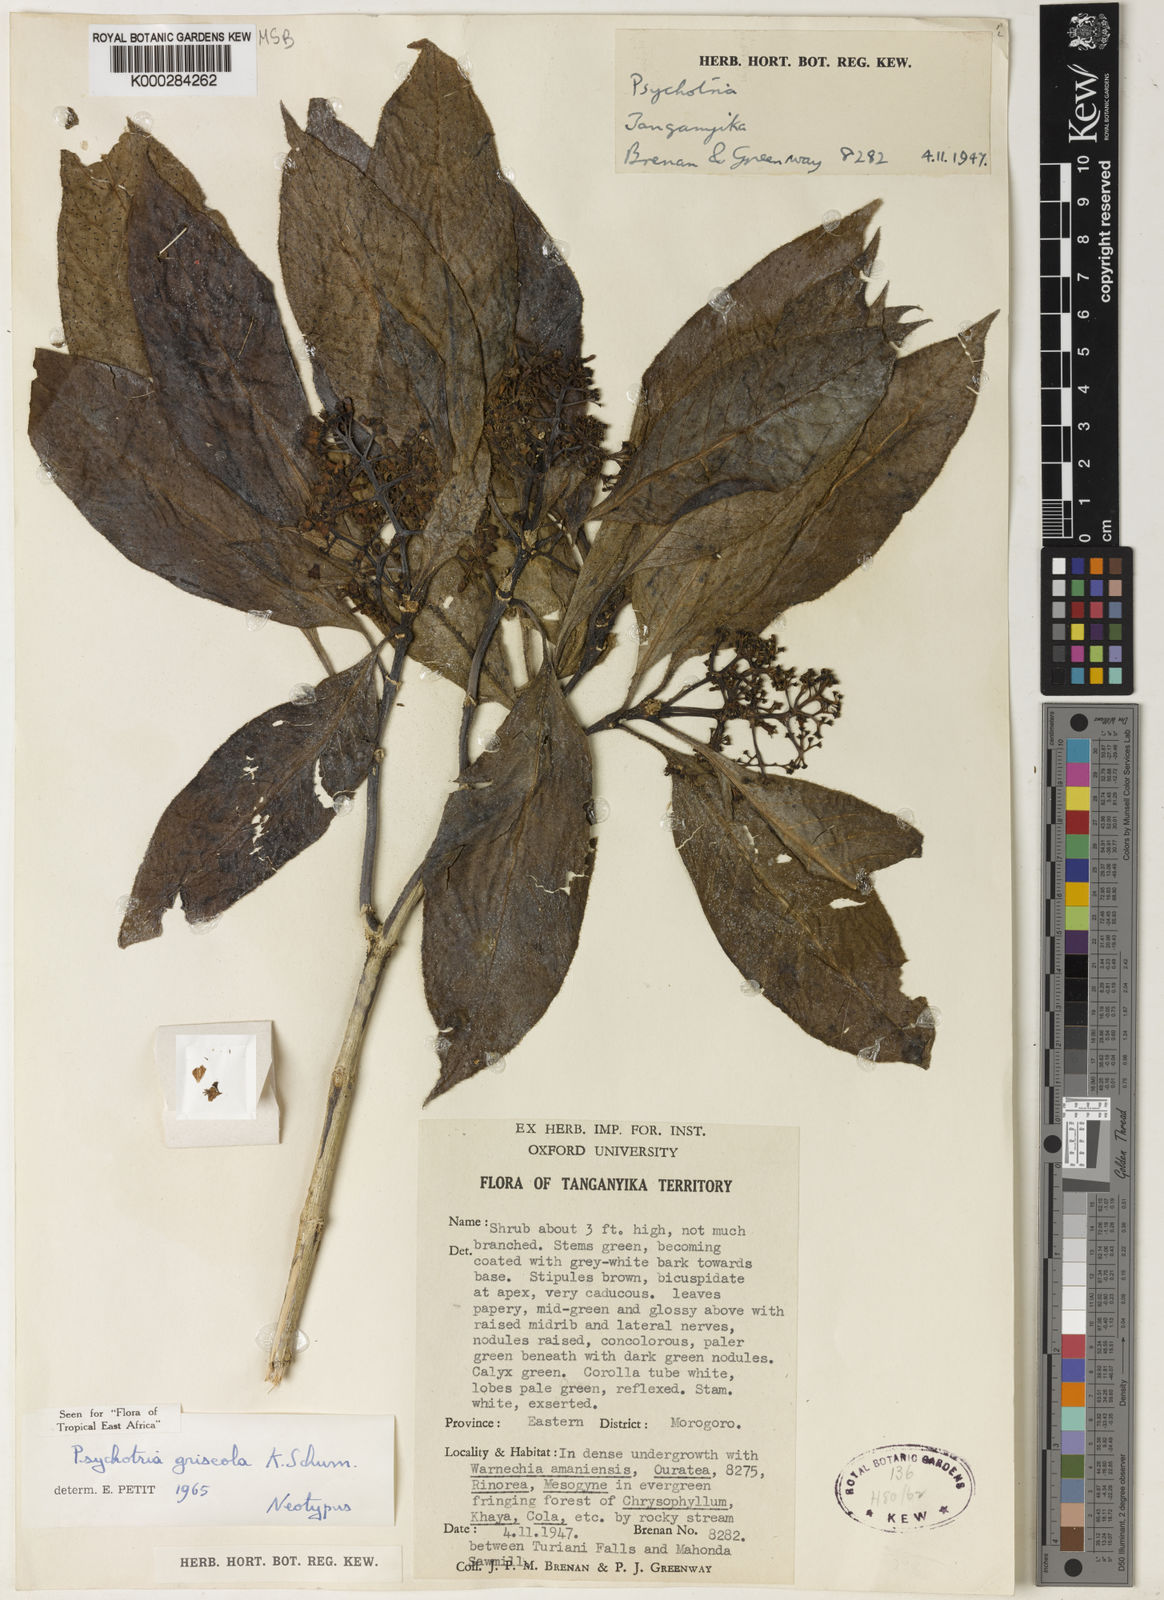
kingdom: Plantae
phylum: Tracheophyta
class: Magnoliopsida
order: Gentianales
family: Rubiaceae
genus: Psychotria
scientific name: Psychotria griseola
